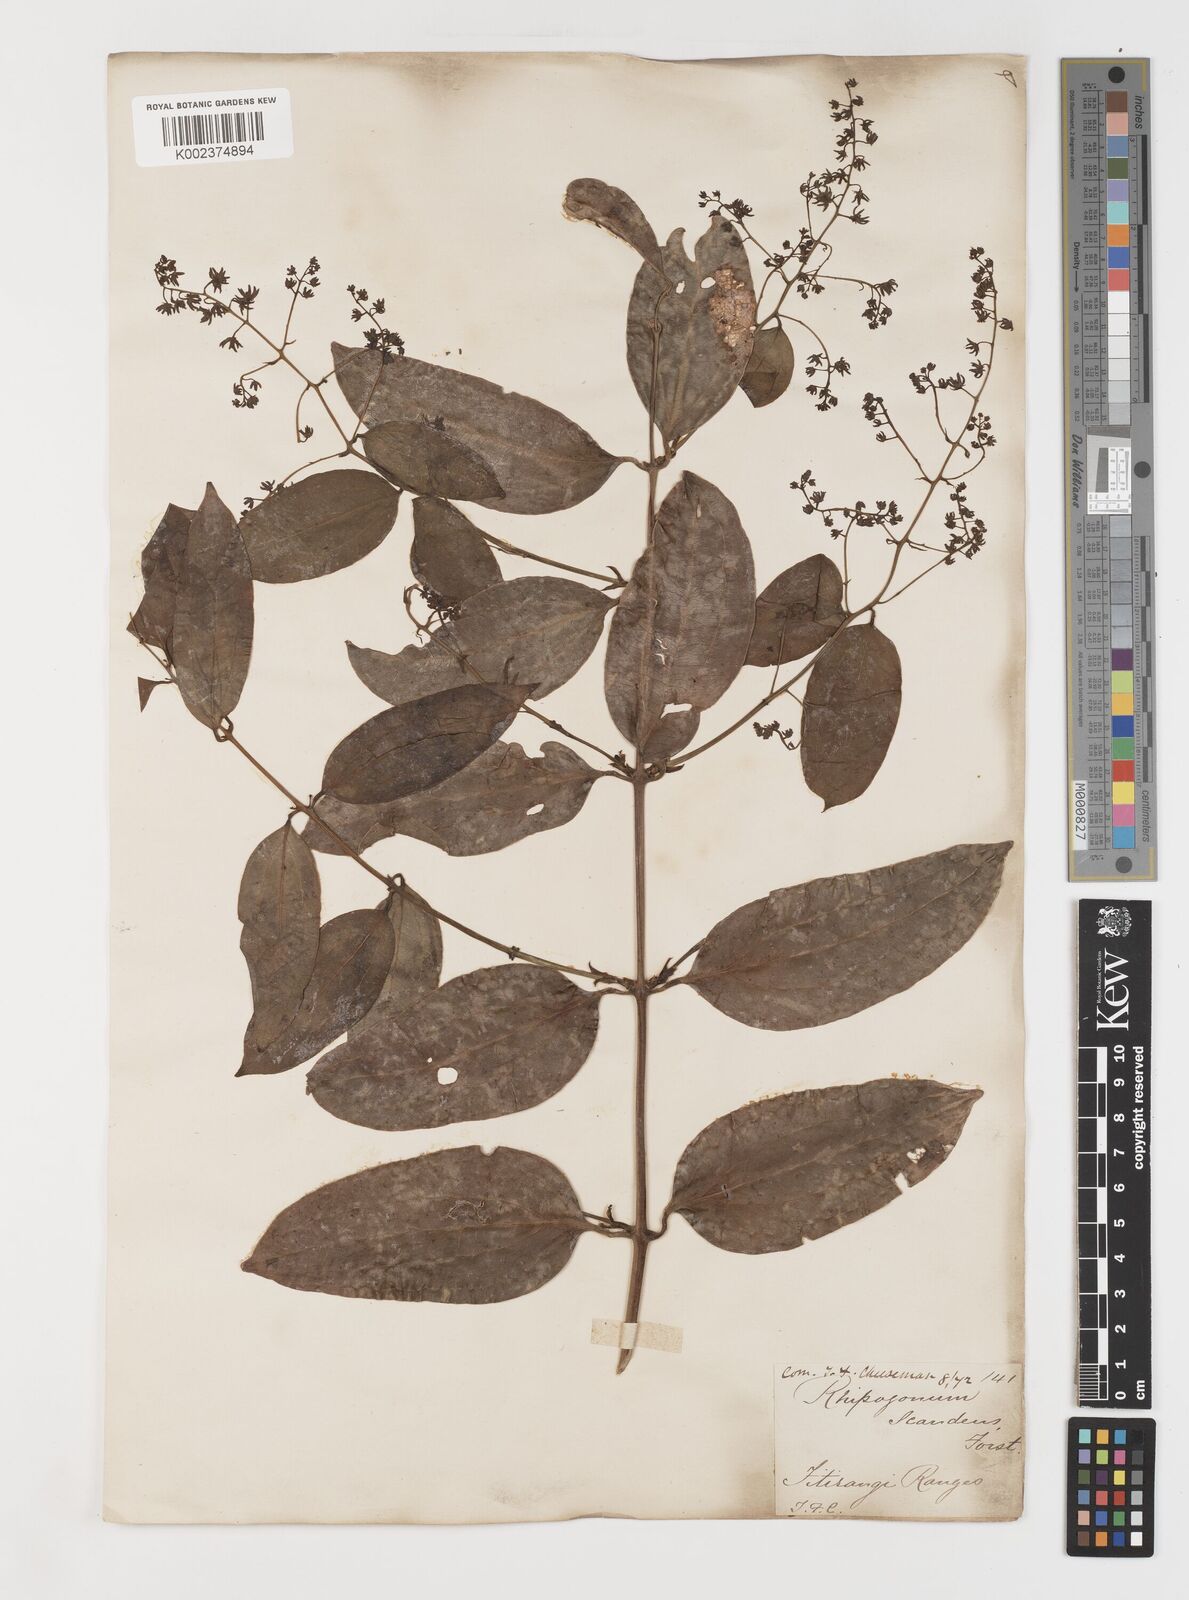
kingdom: Plantae
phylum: Tracheophyta
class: Liliopsida
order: Liliales
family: Ripogonaceae
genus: Ripogonum
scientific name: Ripogonum scandens
